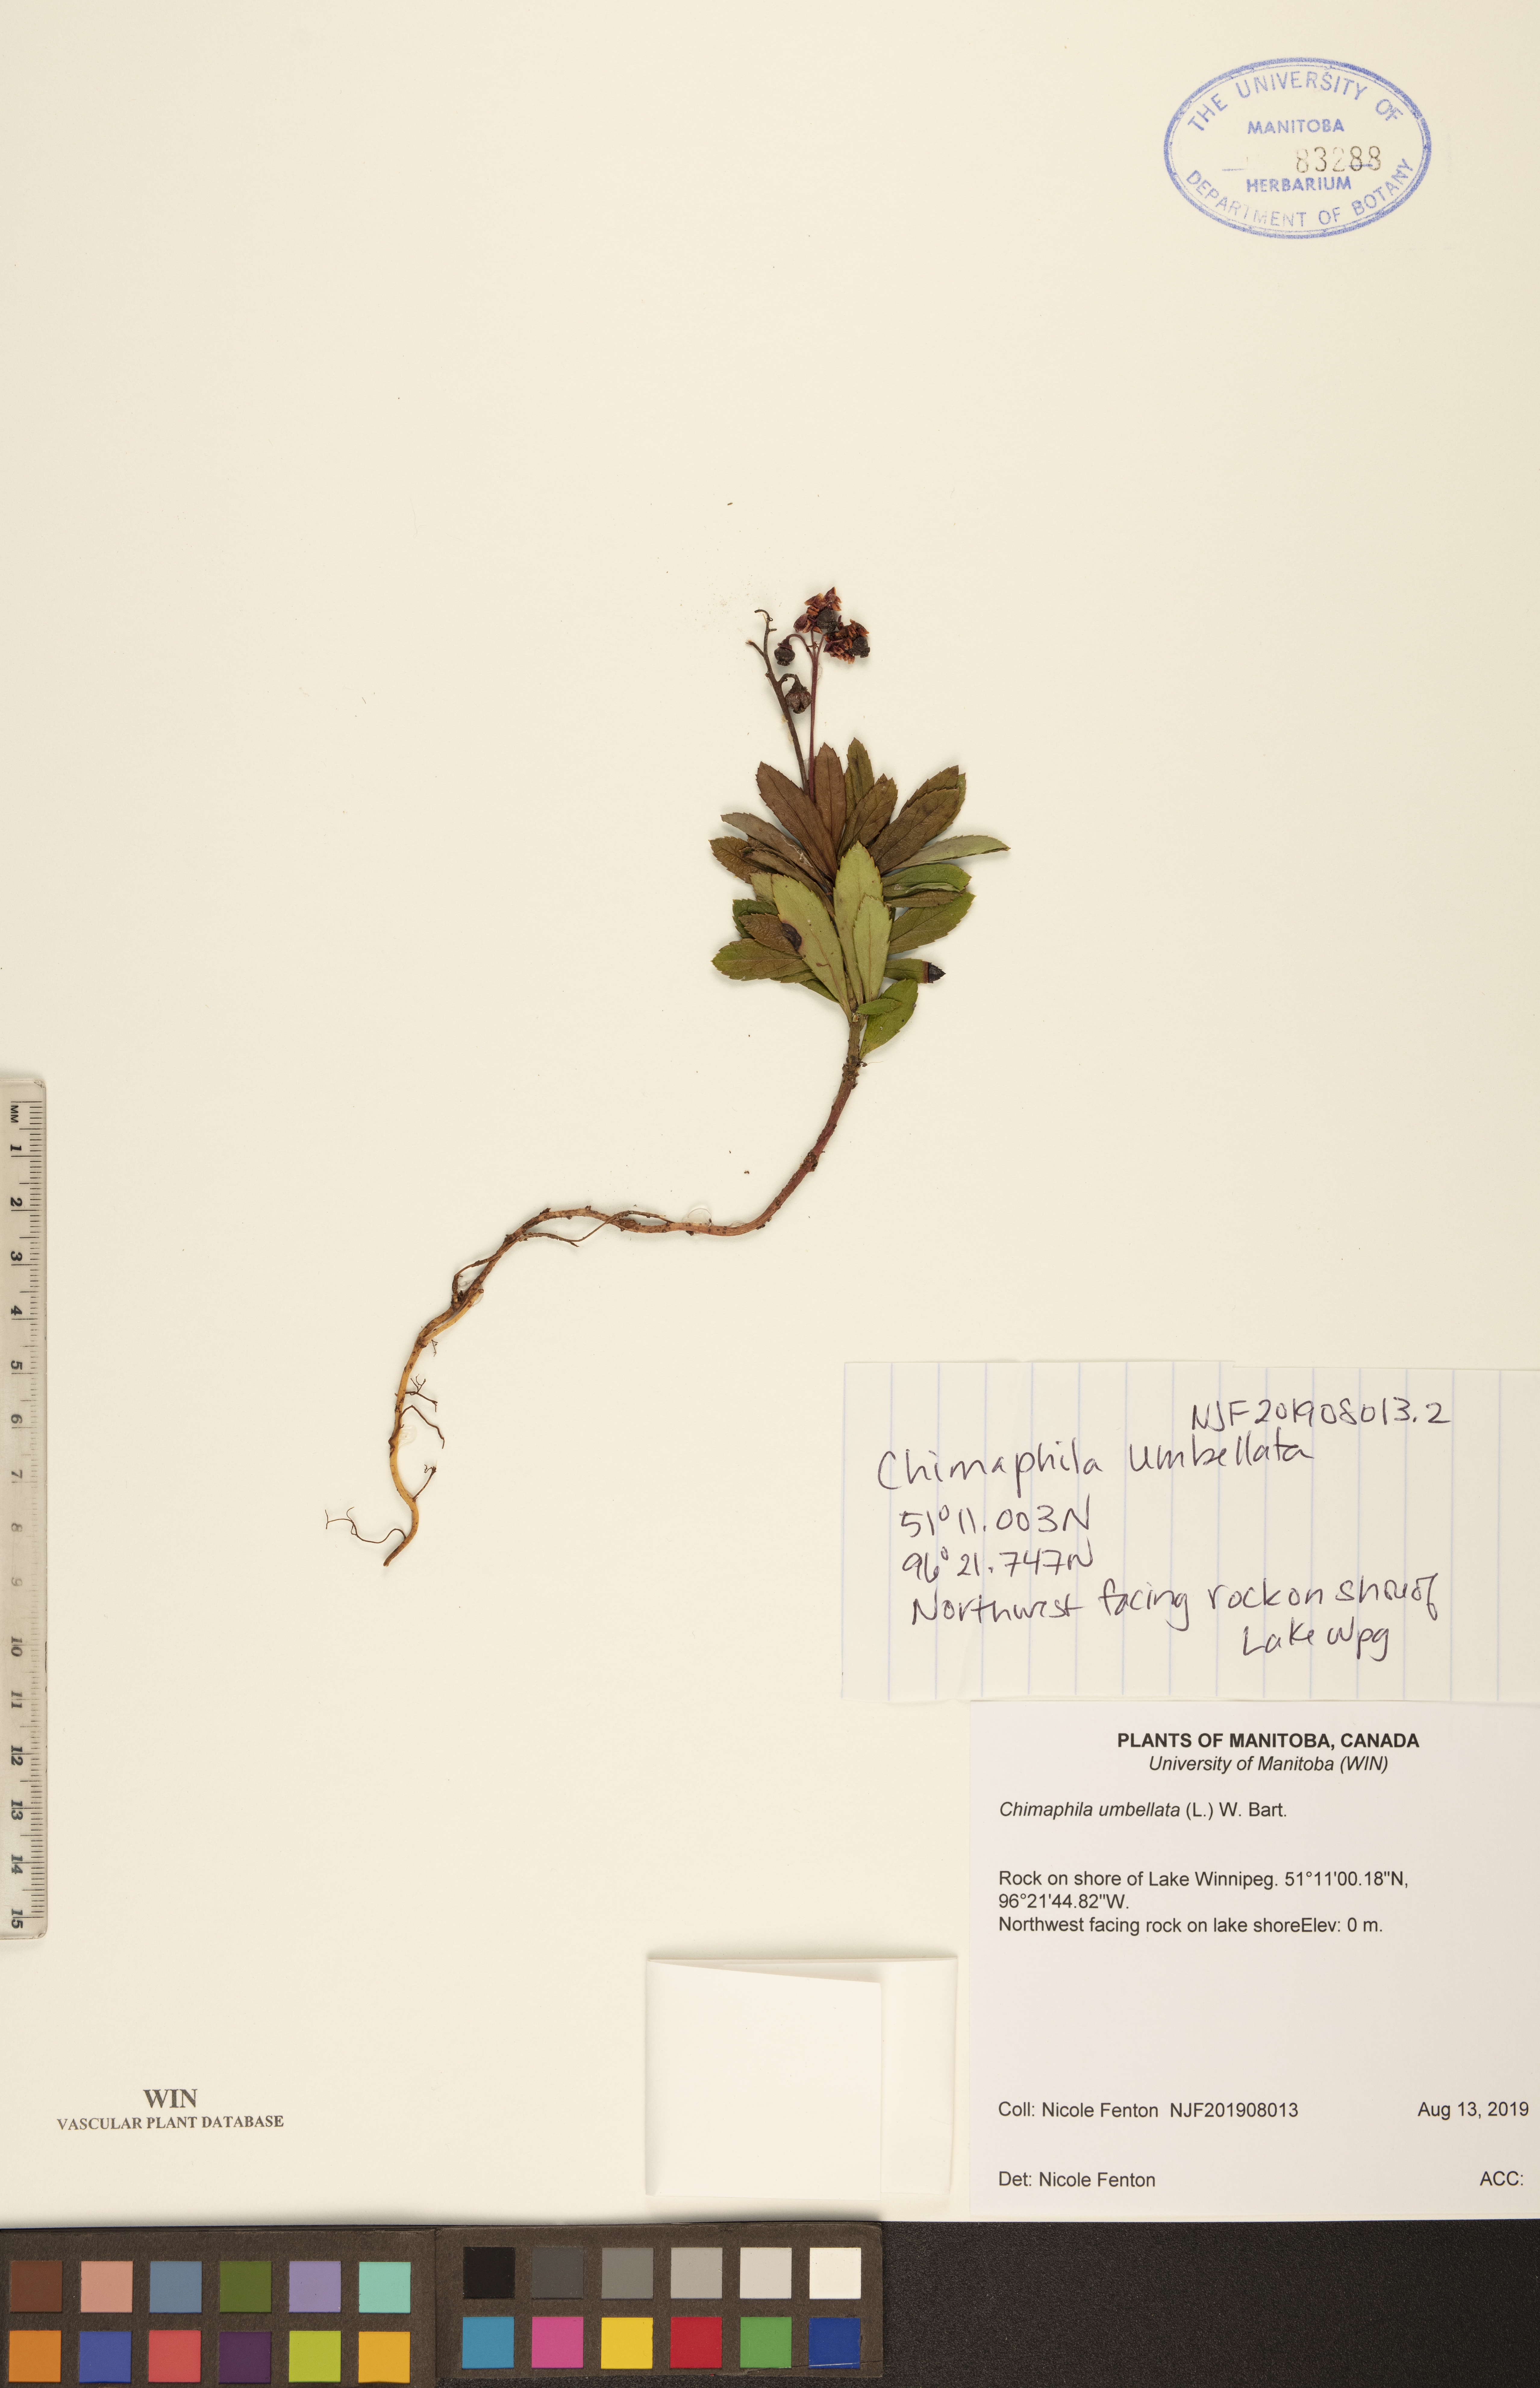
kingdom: Plantae
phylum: Tracheophyta
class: Magnoliopsida
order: Ericales
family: Ericaceae
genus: Chimaphila
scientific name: Chimaphila umbellata
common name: Pipsissewa
